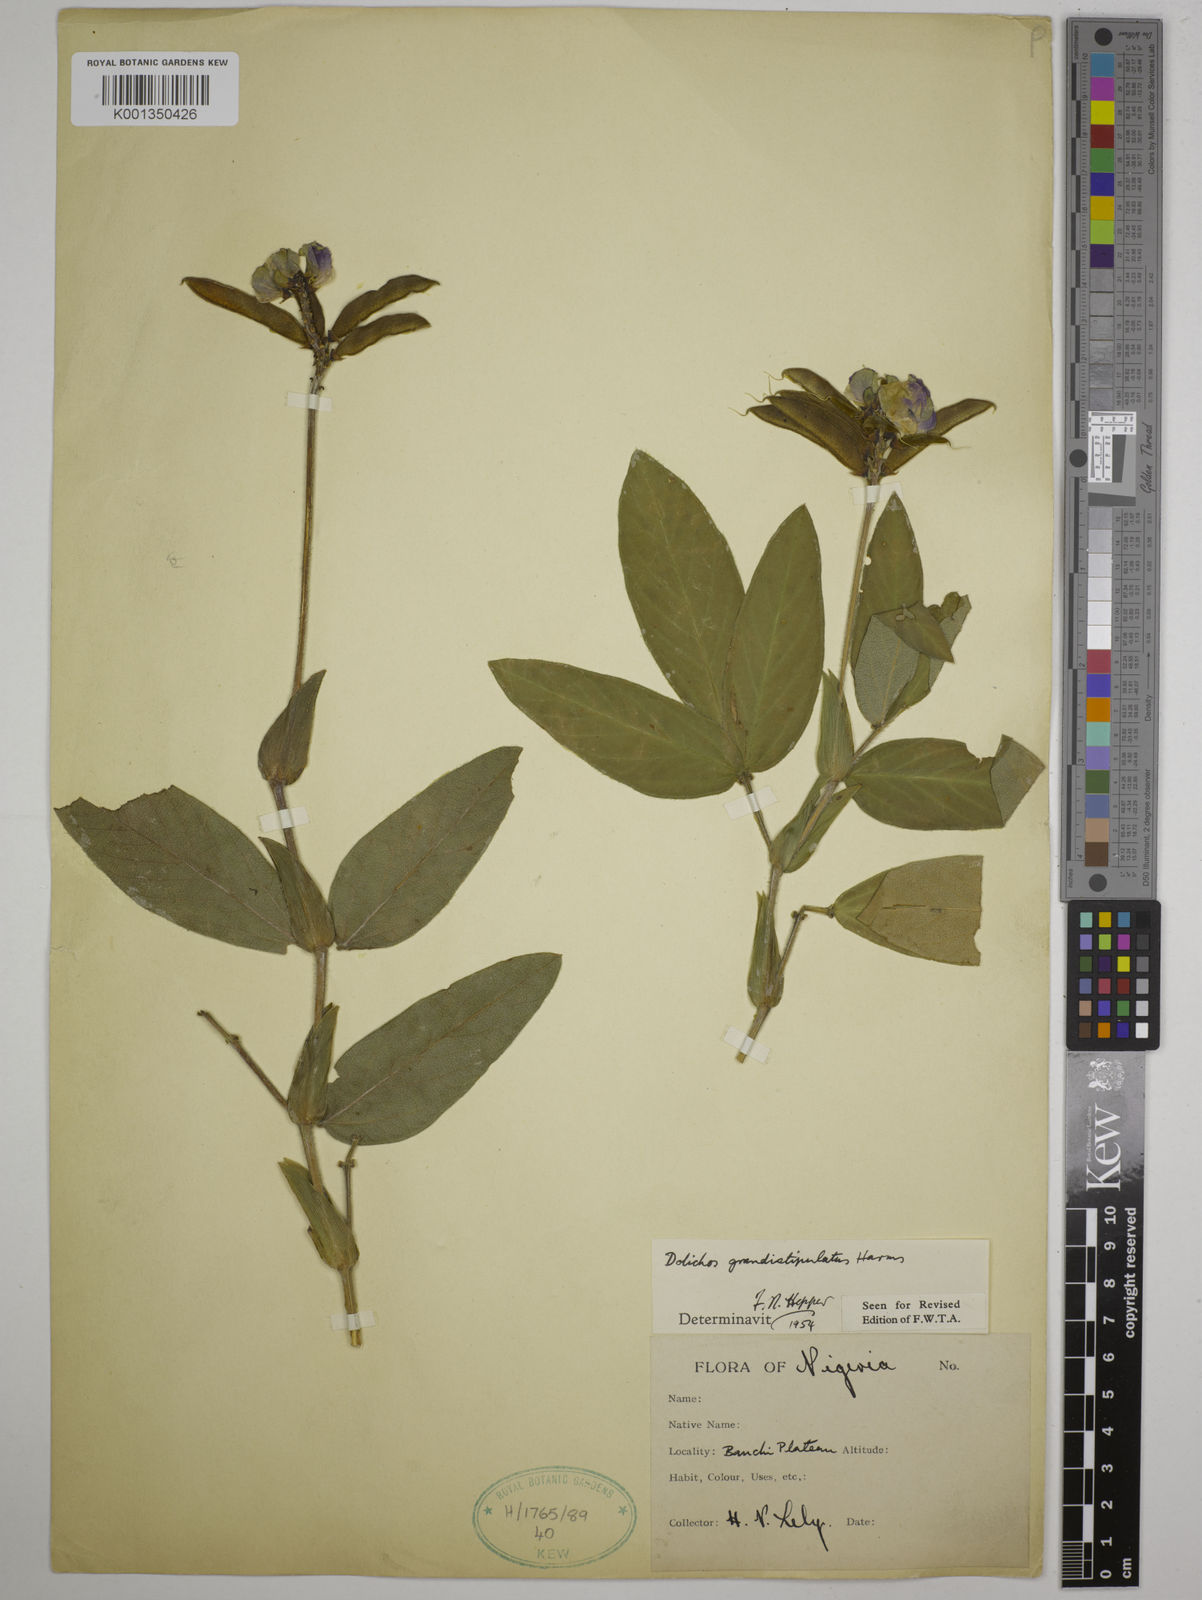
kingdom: Plantae
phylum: Tracheophyta
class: Magnoliopsida
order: Fabales
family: Fabaceae
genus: Dolichos
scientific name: Dolichos grandistipulatus
